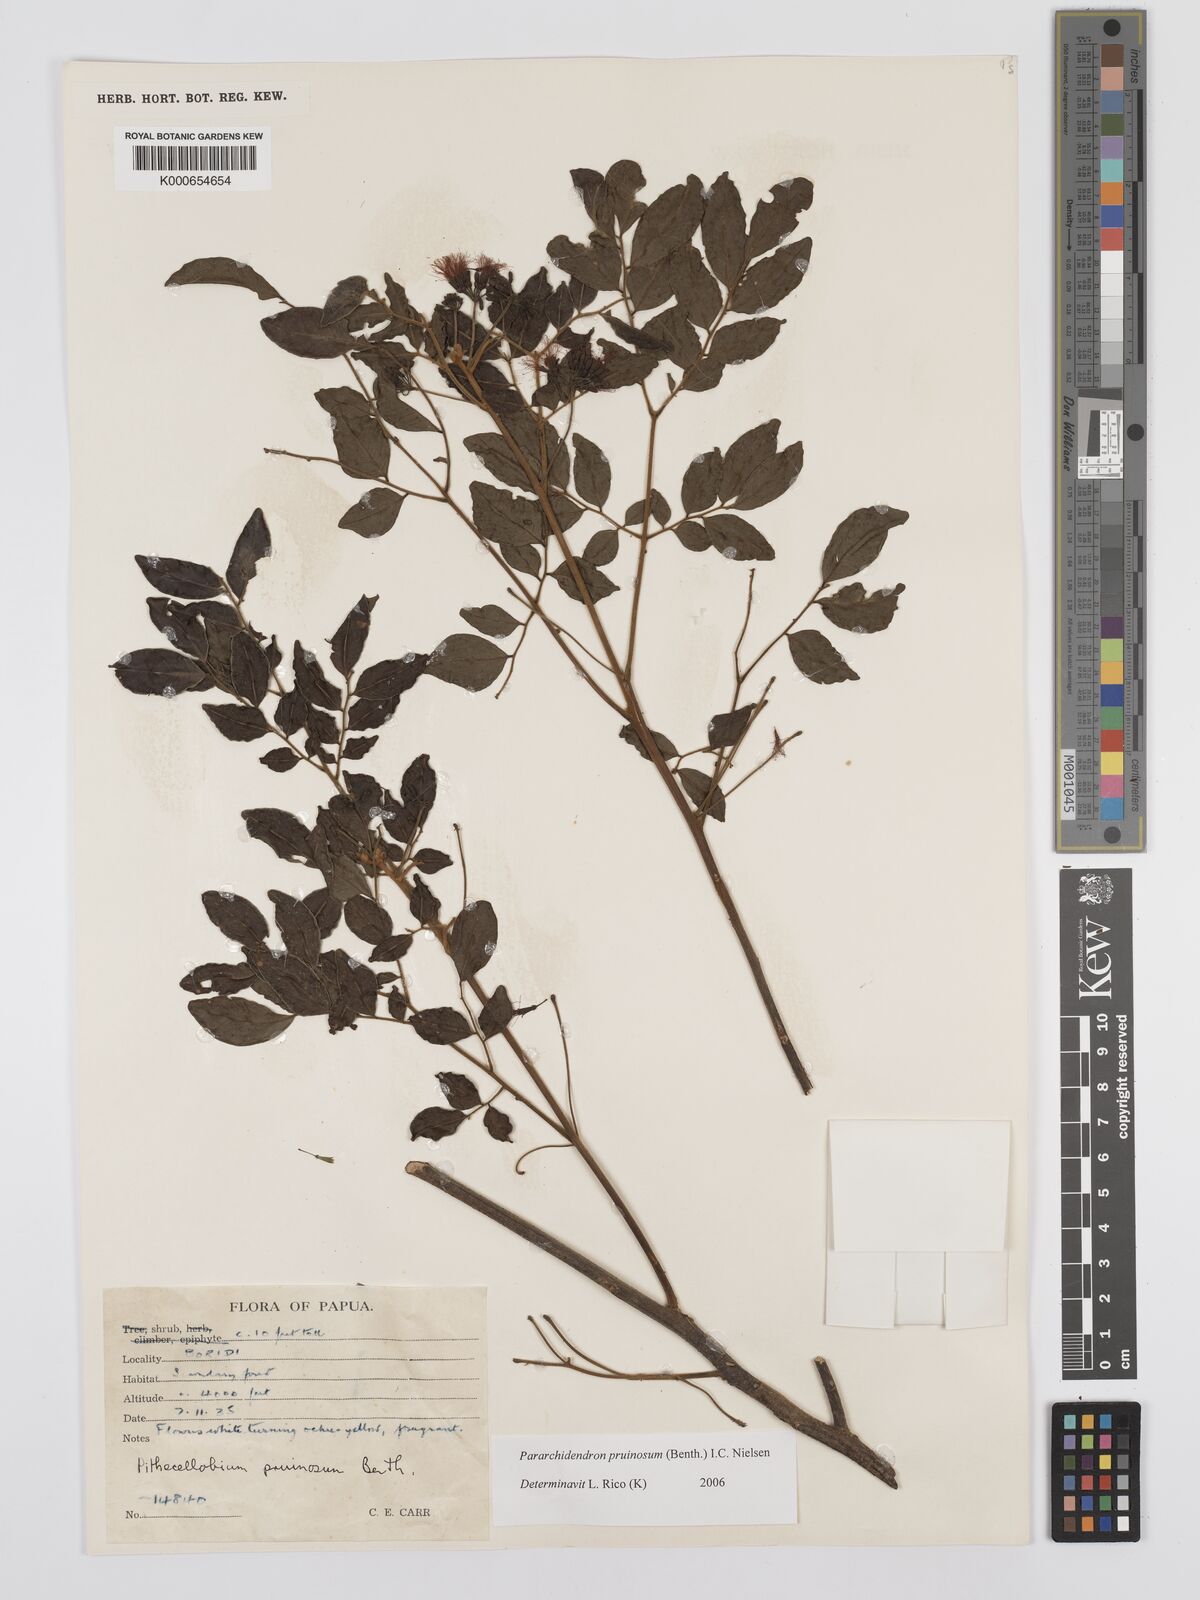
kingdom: Plantae
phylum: Tracheophyta
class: Magnoliopsida
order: Fabales
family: Fabaceae
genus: Pararchidendron
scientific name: Pararchidendron pruinosum
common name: Tulip siris
